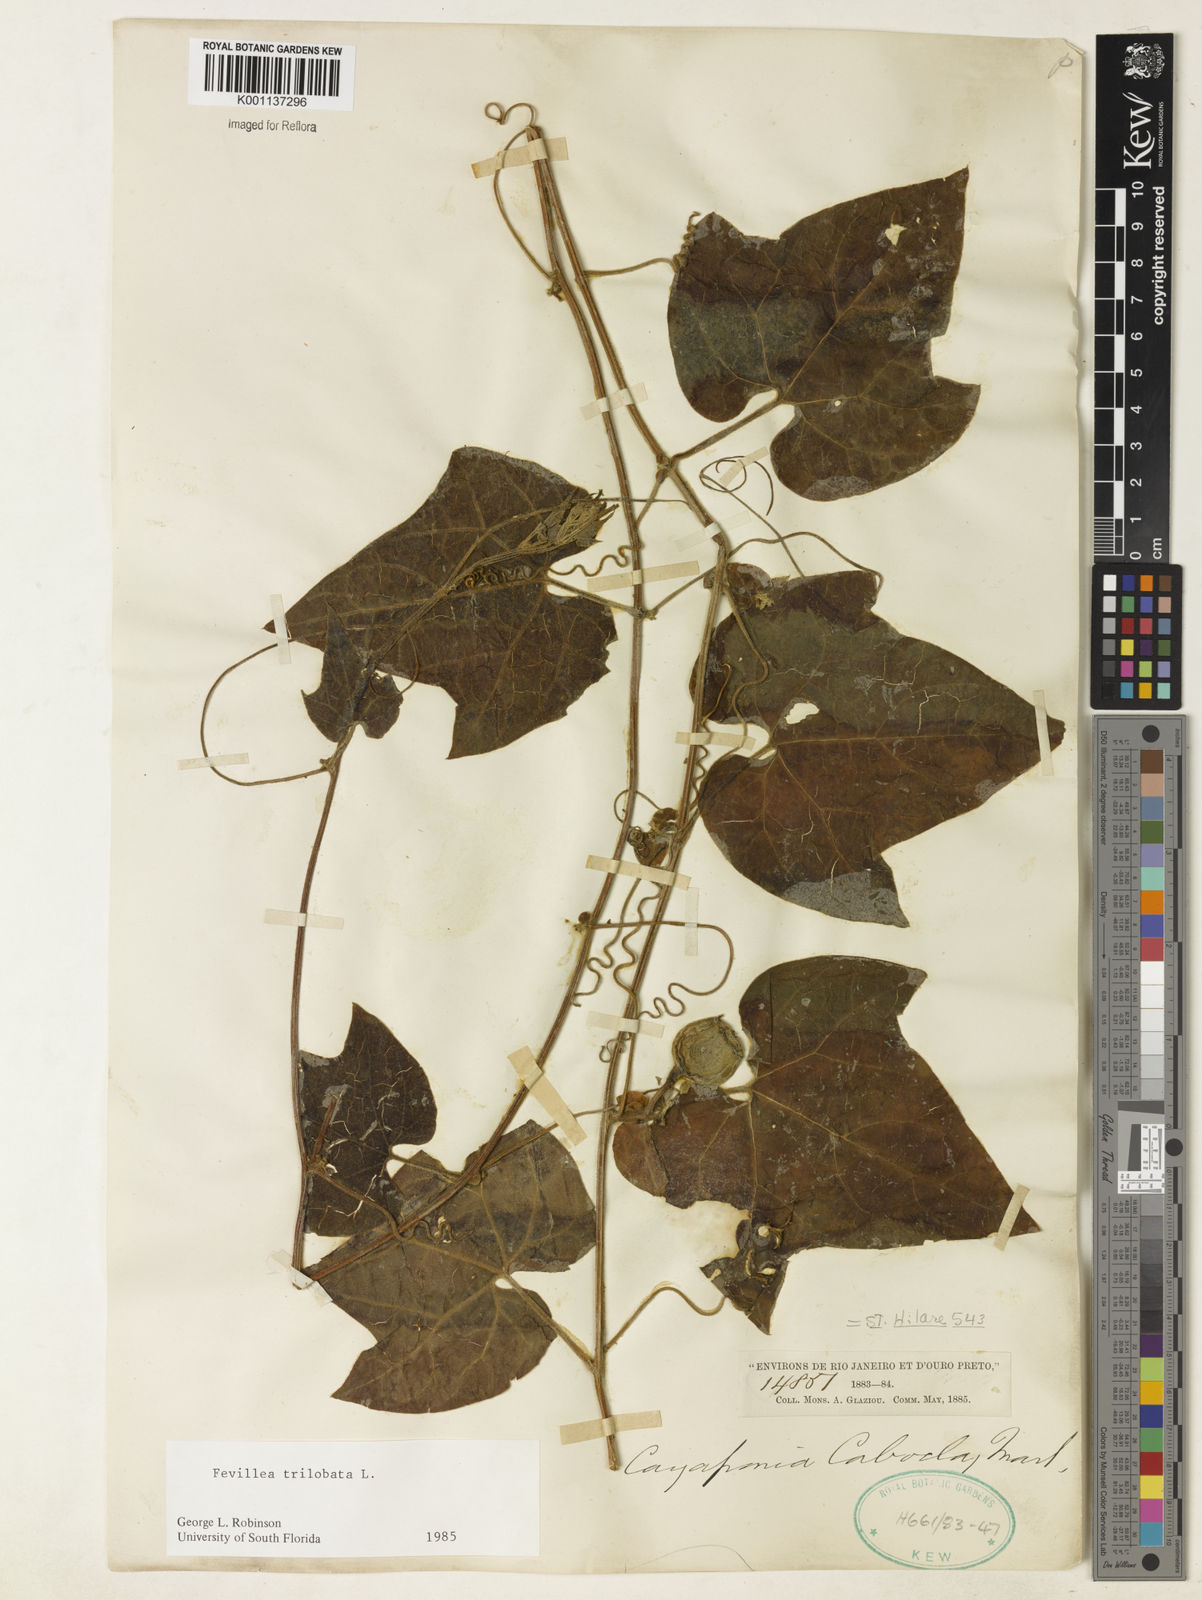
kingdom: Plantae
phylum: Tracheophyta
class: Magnoliopsida
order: Cucurbitales
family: Cucurbitaceae
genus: Fevillea
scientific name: Fevillea trilobata
